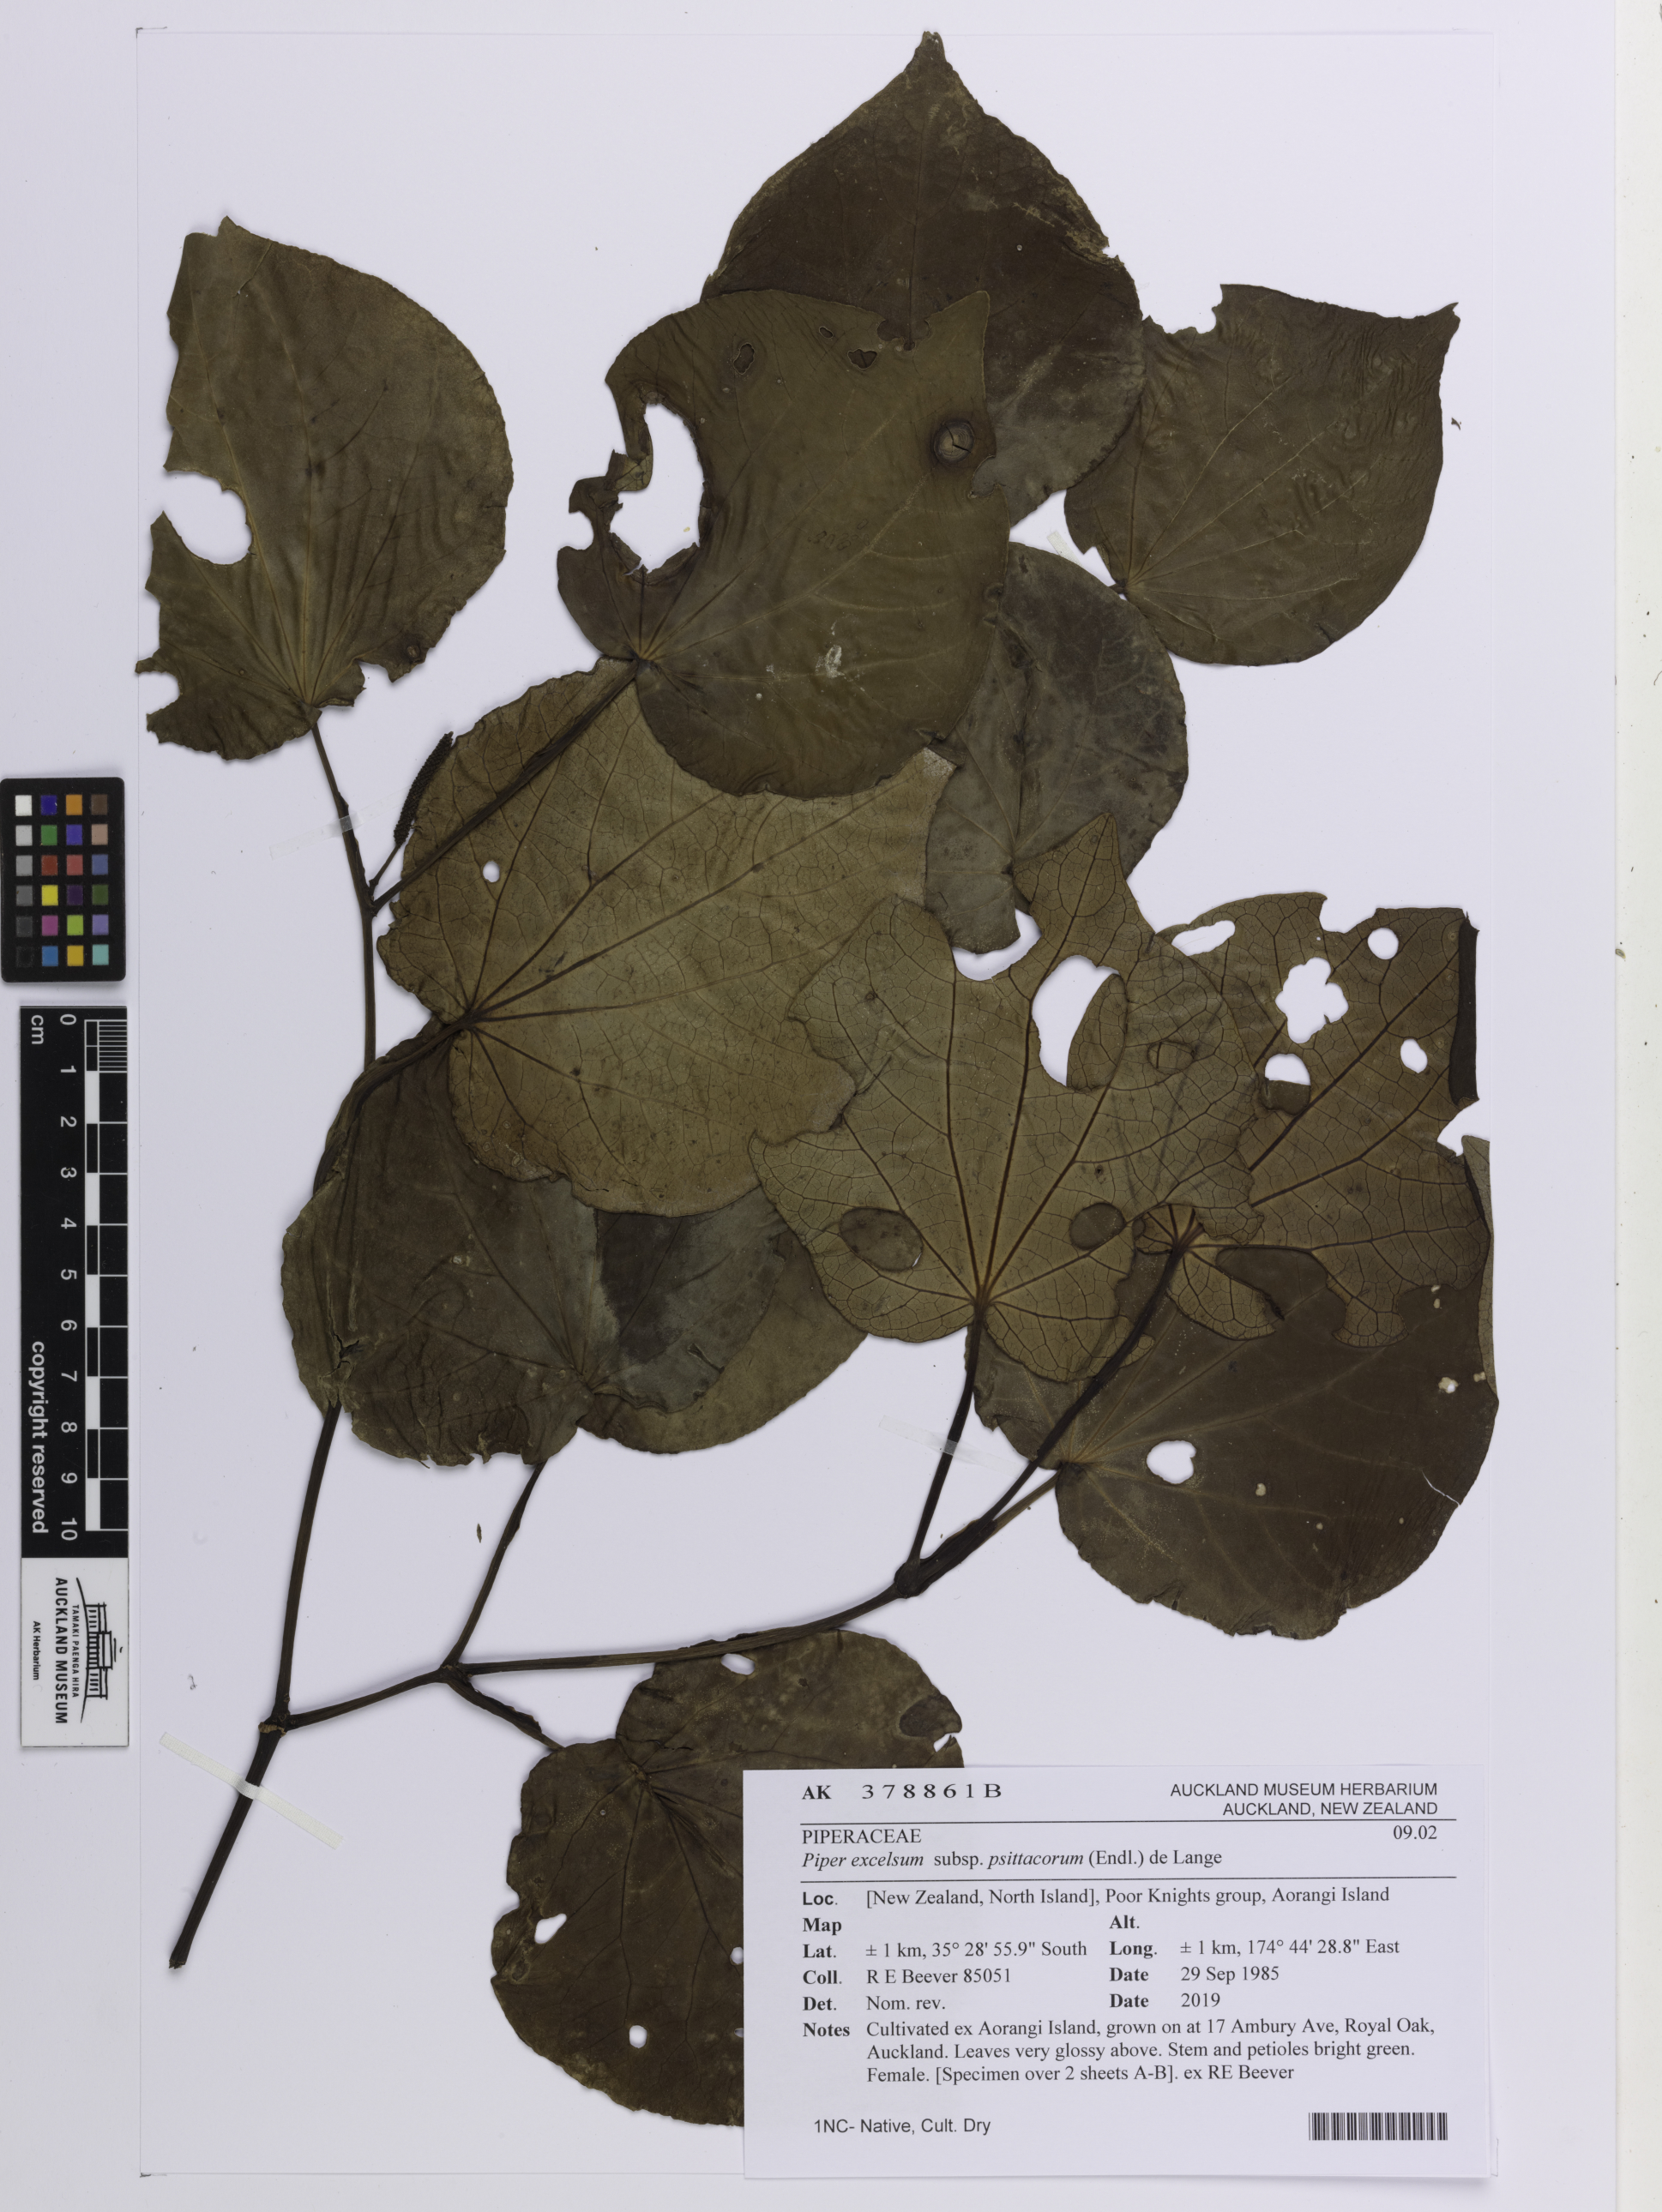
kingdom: Plantae
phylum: Tracheophyta
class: Magnoliopsida
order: Piperales
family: Piperaceae
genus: Macropiper
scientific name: Macropiper excelsum
